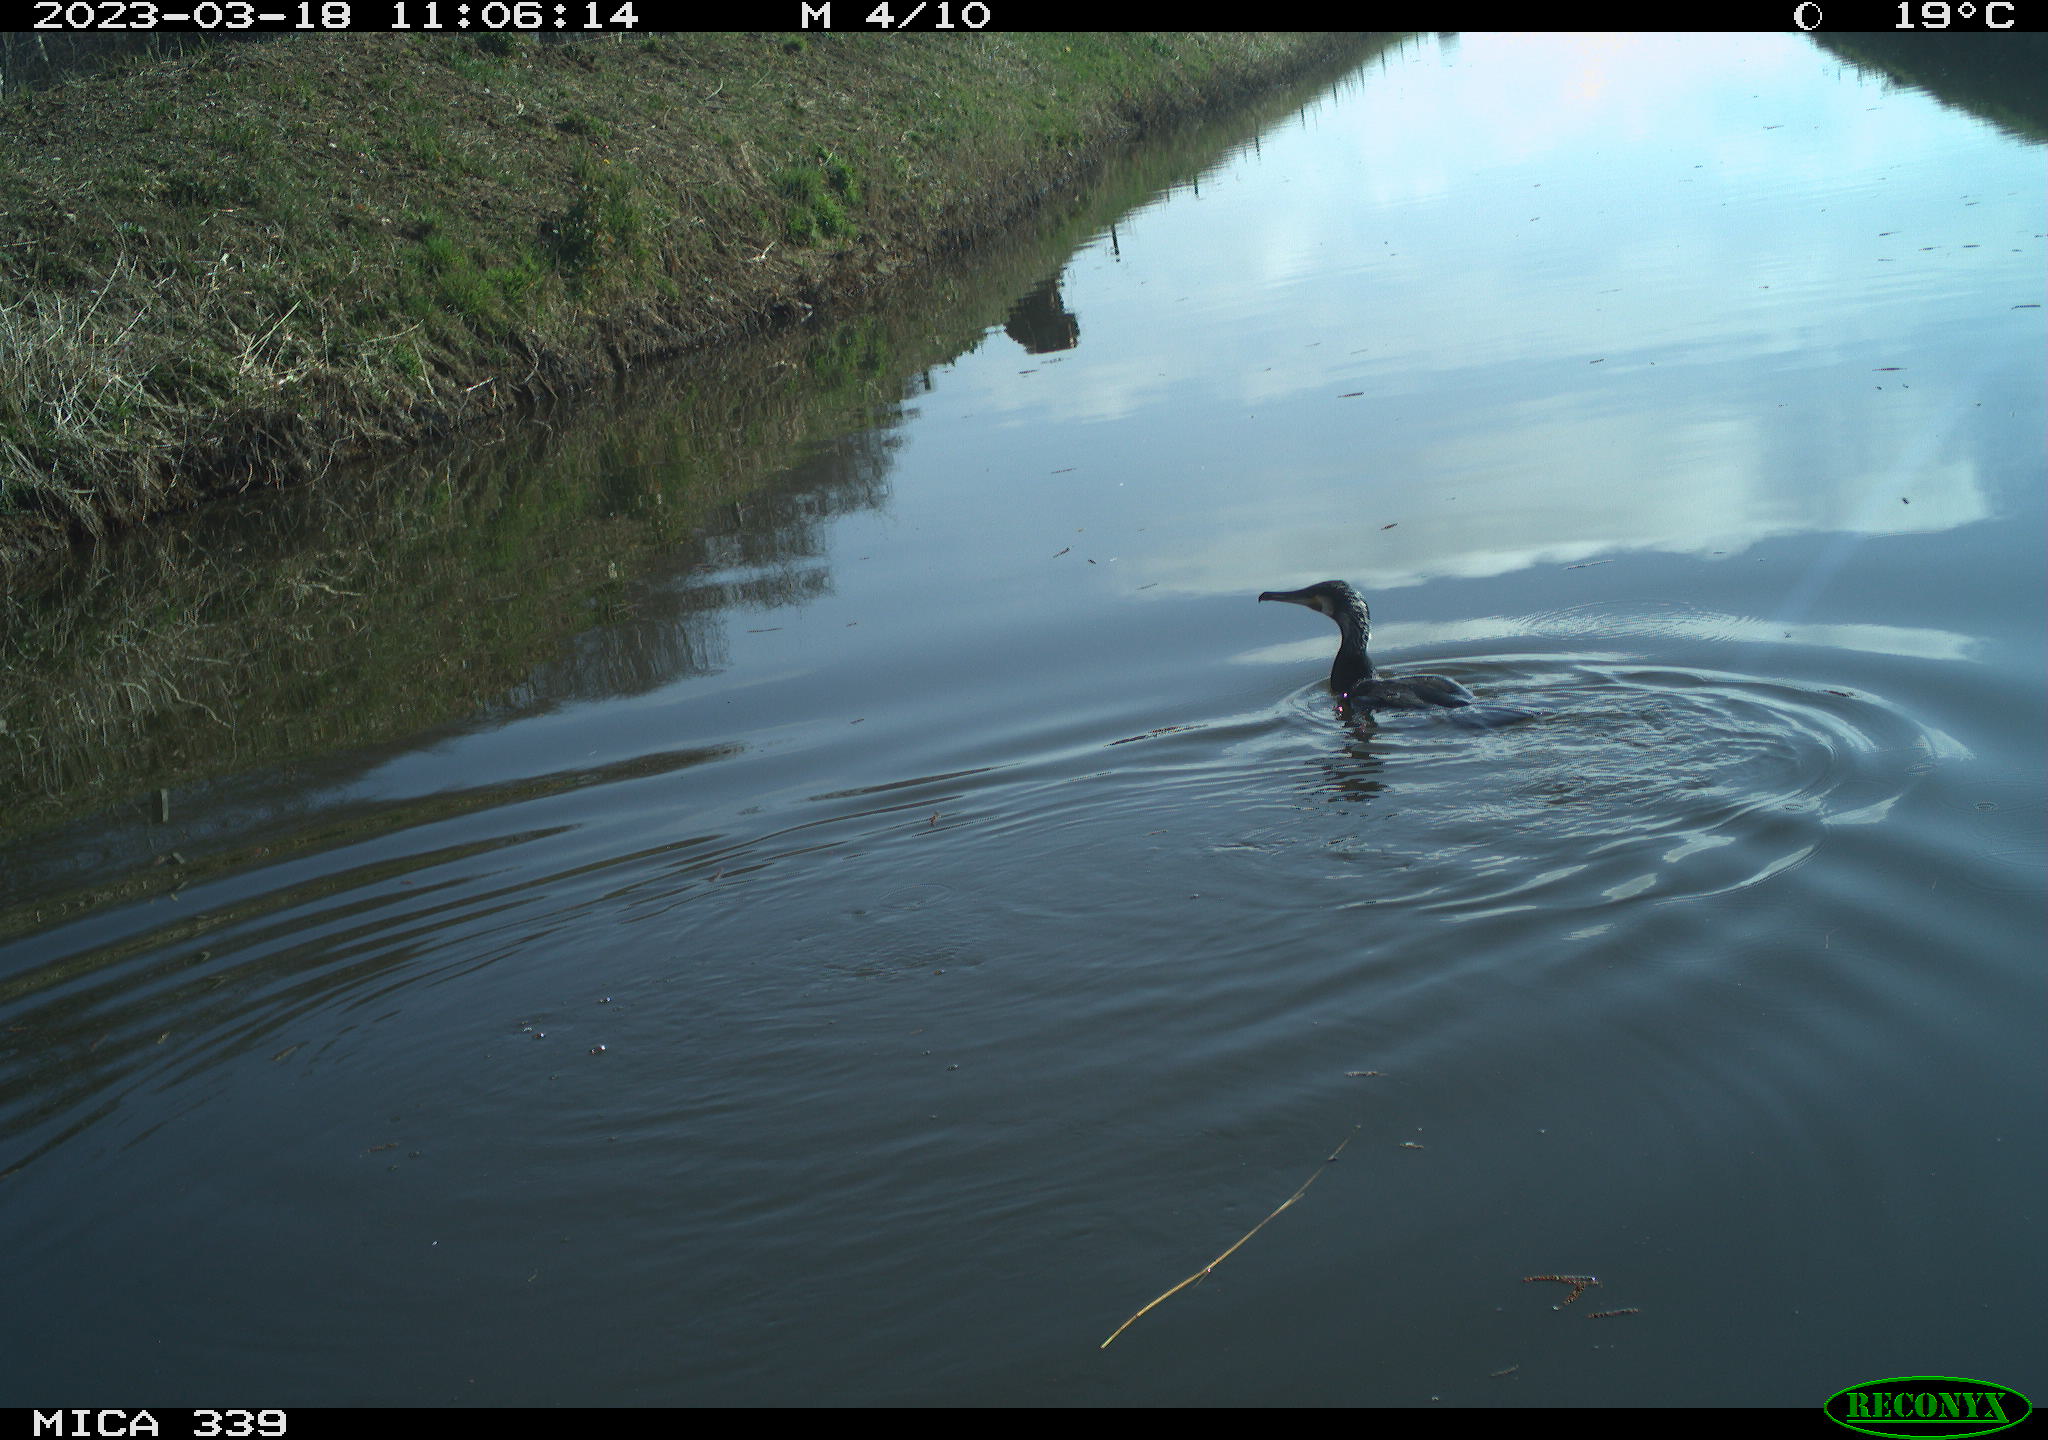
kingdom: Animalia
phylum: Chordata
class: Aves
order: Anseriformes
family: Anatidae
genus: Anas
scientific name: Anas
